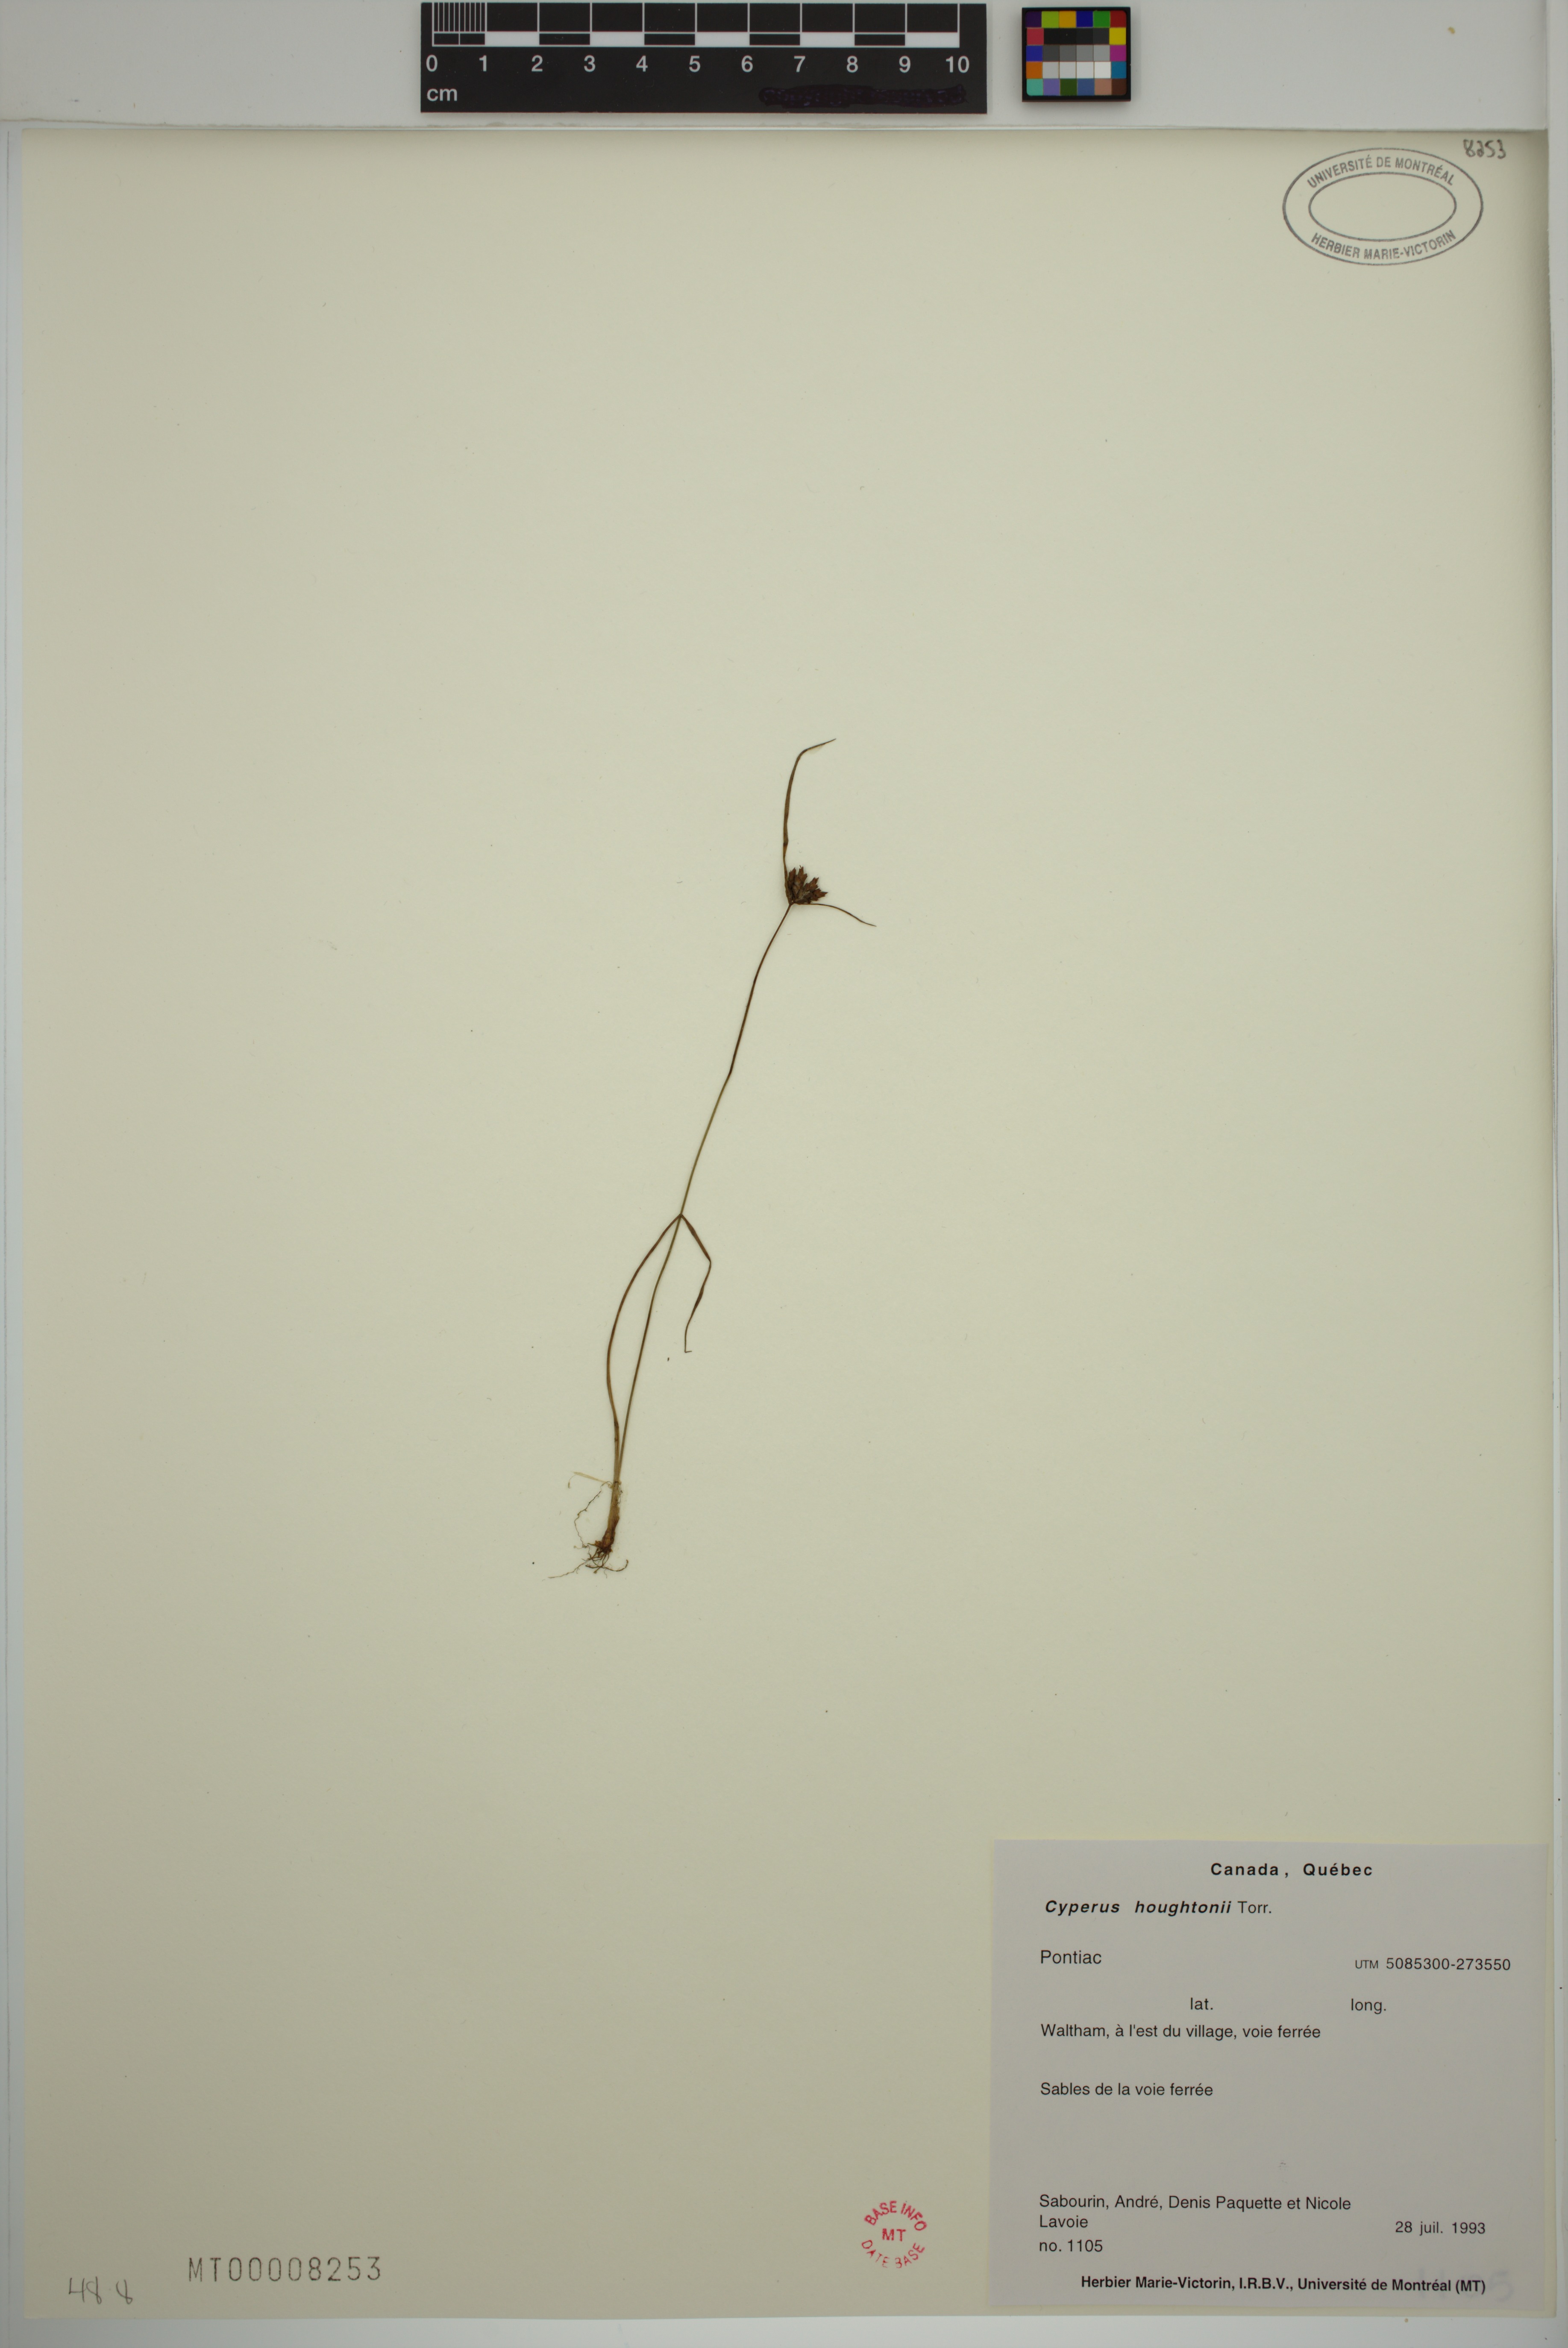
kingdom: Plantae
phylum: Tracheophyta
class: Liliopsida
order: Poales
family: Cyperaceae
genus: Cyperus
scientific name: Cyperus houghtonii
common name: Houghton's cyperus
